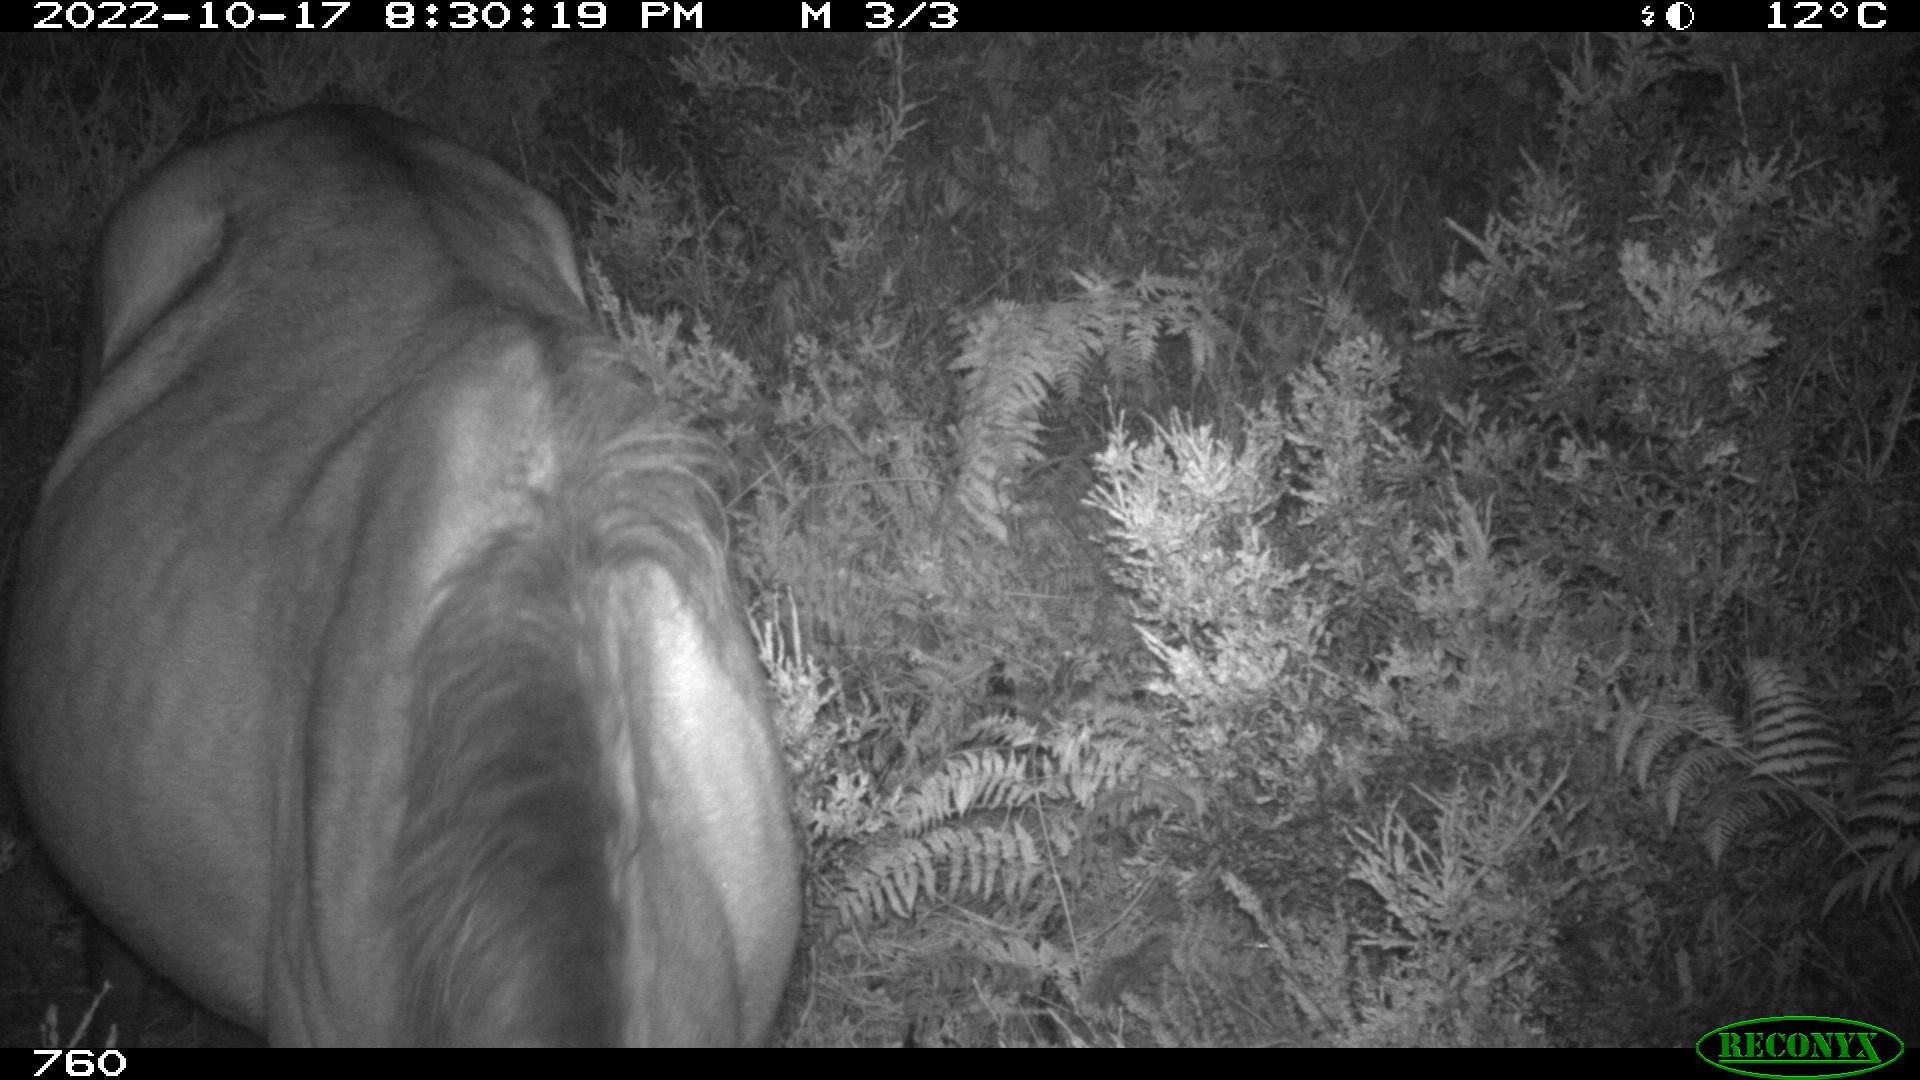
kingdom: Animalia
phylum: Chordata
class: Mammalia
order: Perissodactyla
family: Equidae
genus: Equus
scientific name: Equus caballus
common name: Horse
